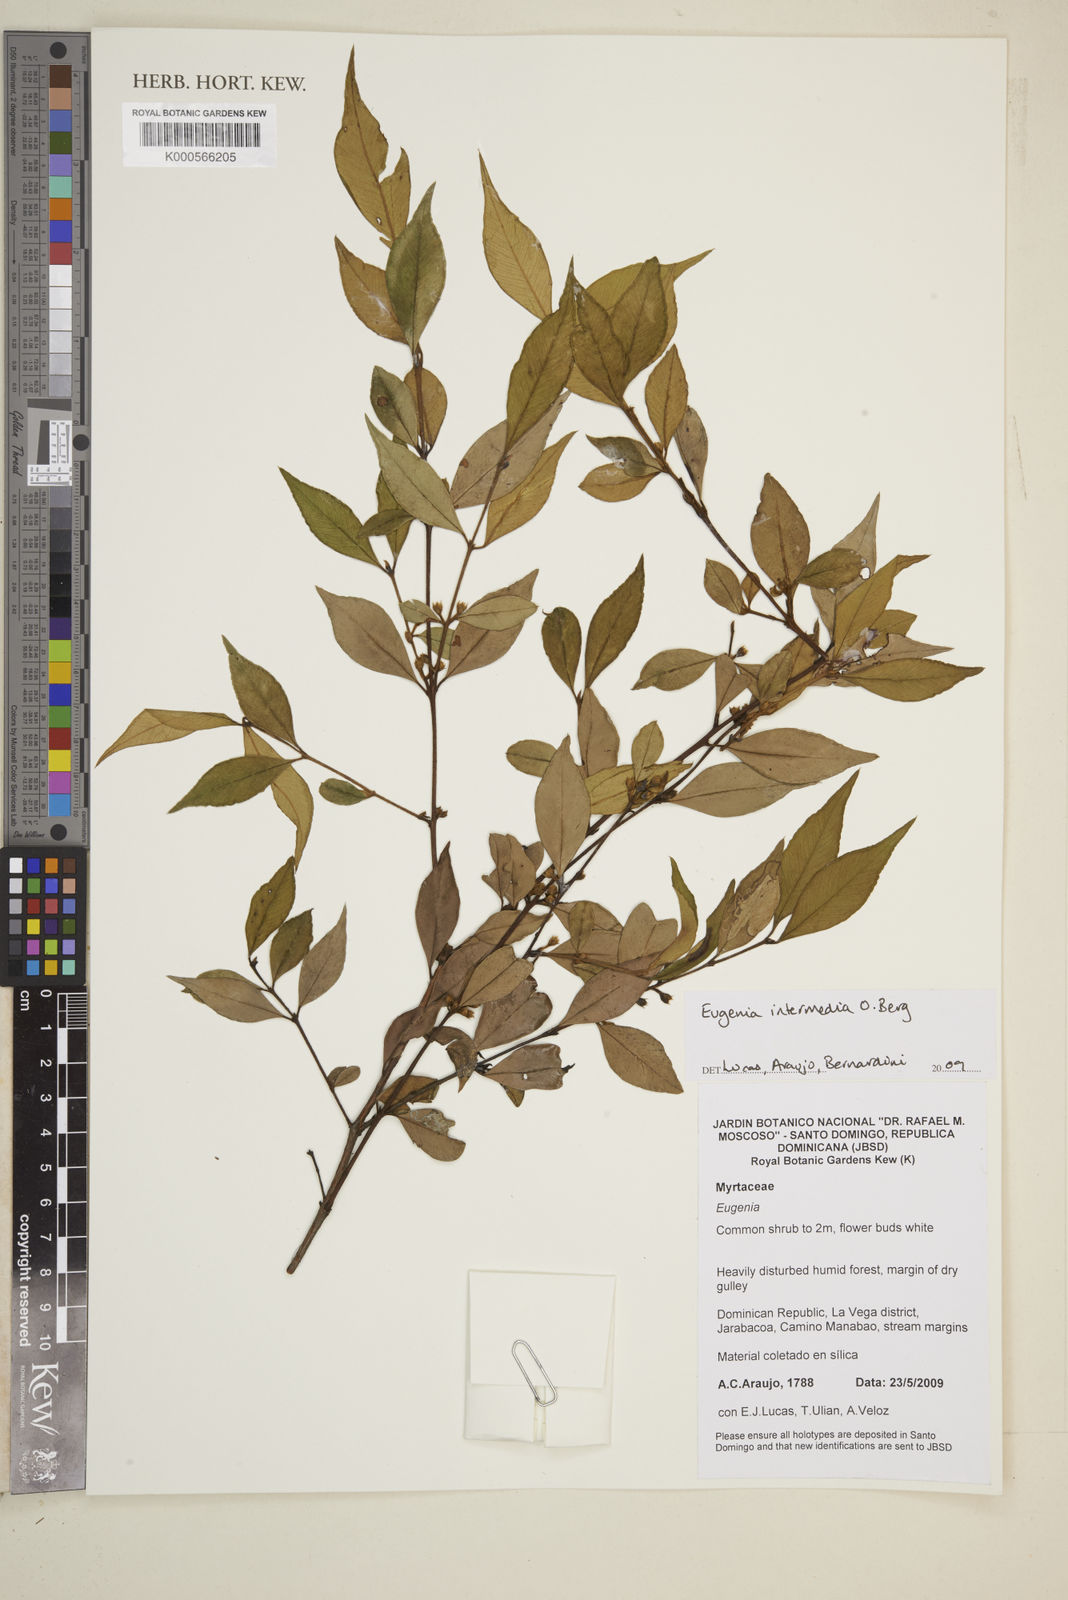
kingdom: Plantae
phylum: Tracheophyta
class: Magnoliopsida
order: Myrtales
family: Myrtaceae
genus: Eugenia
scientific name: Eugenia intermedia
